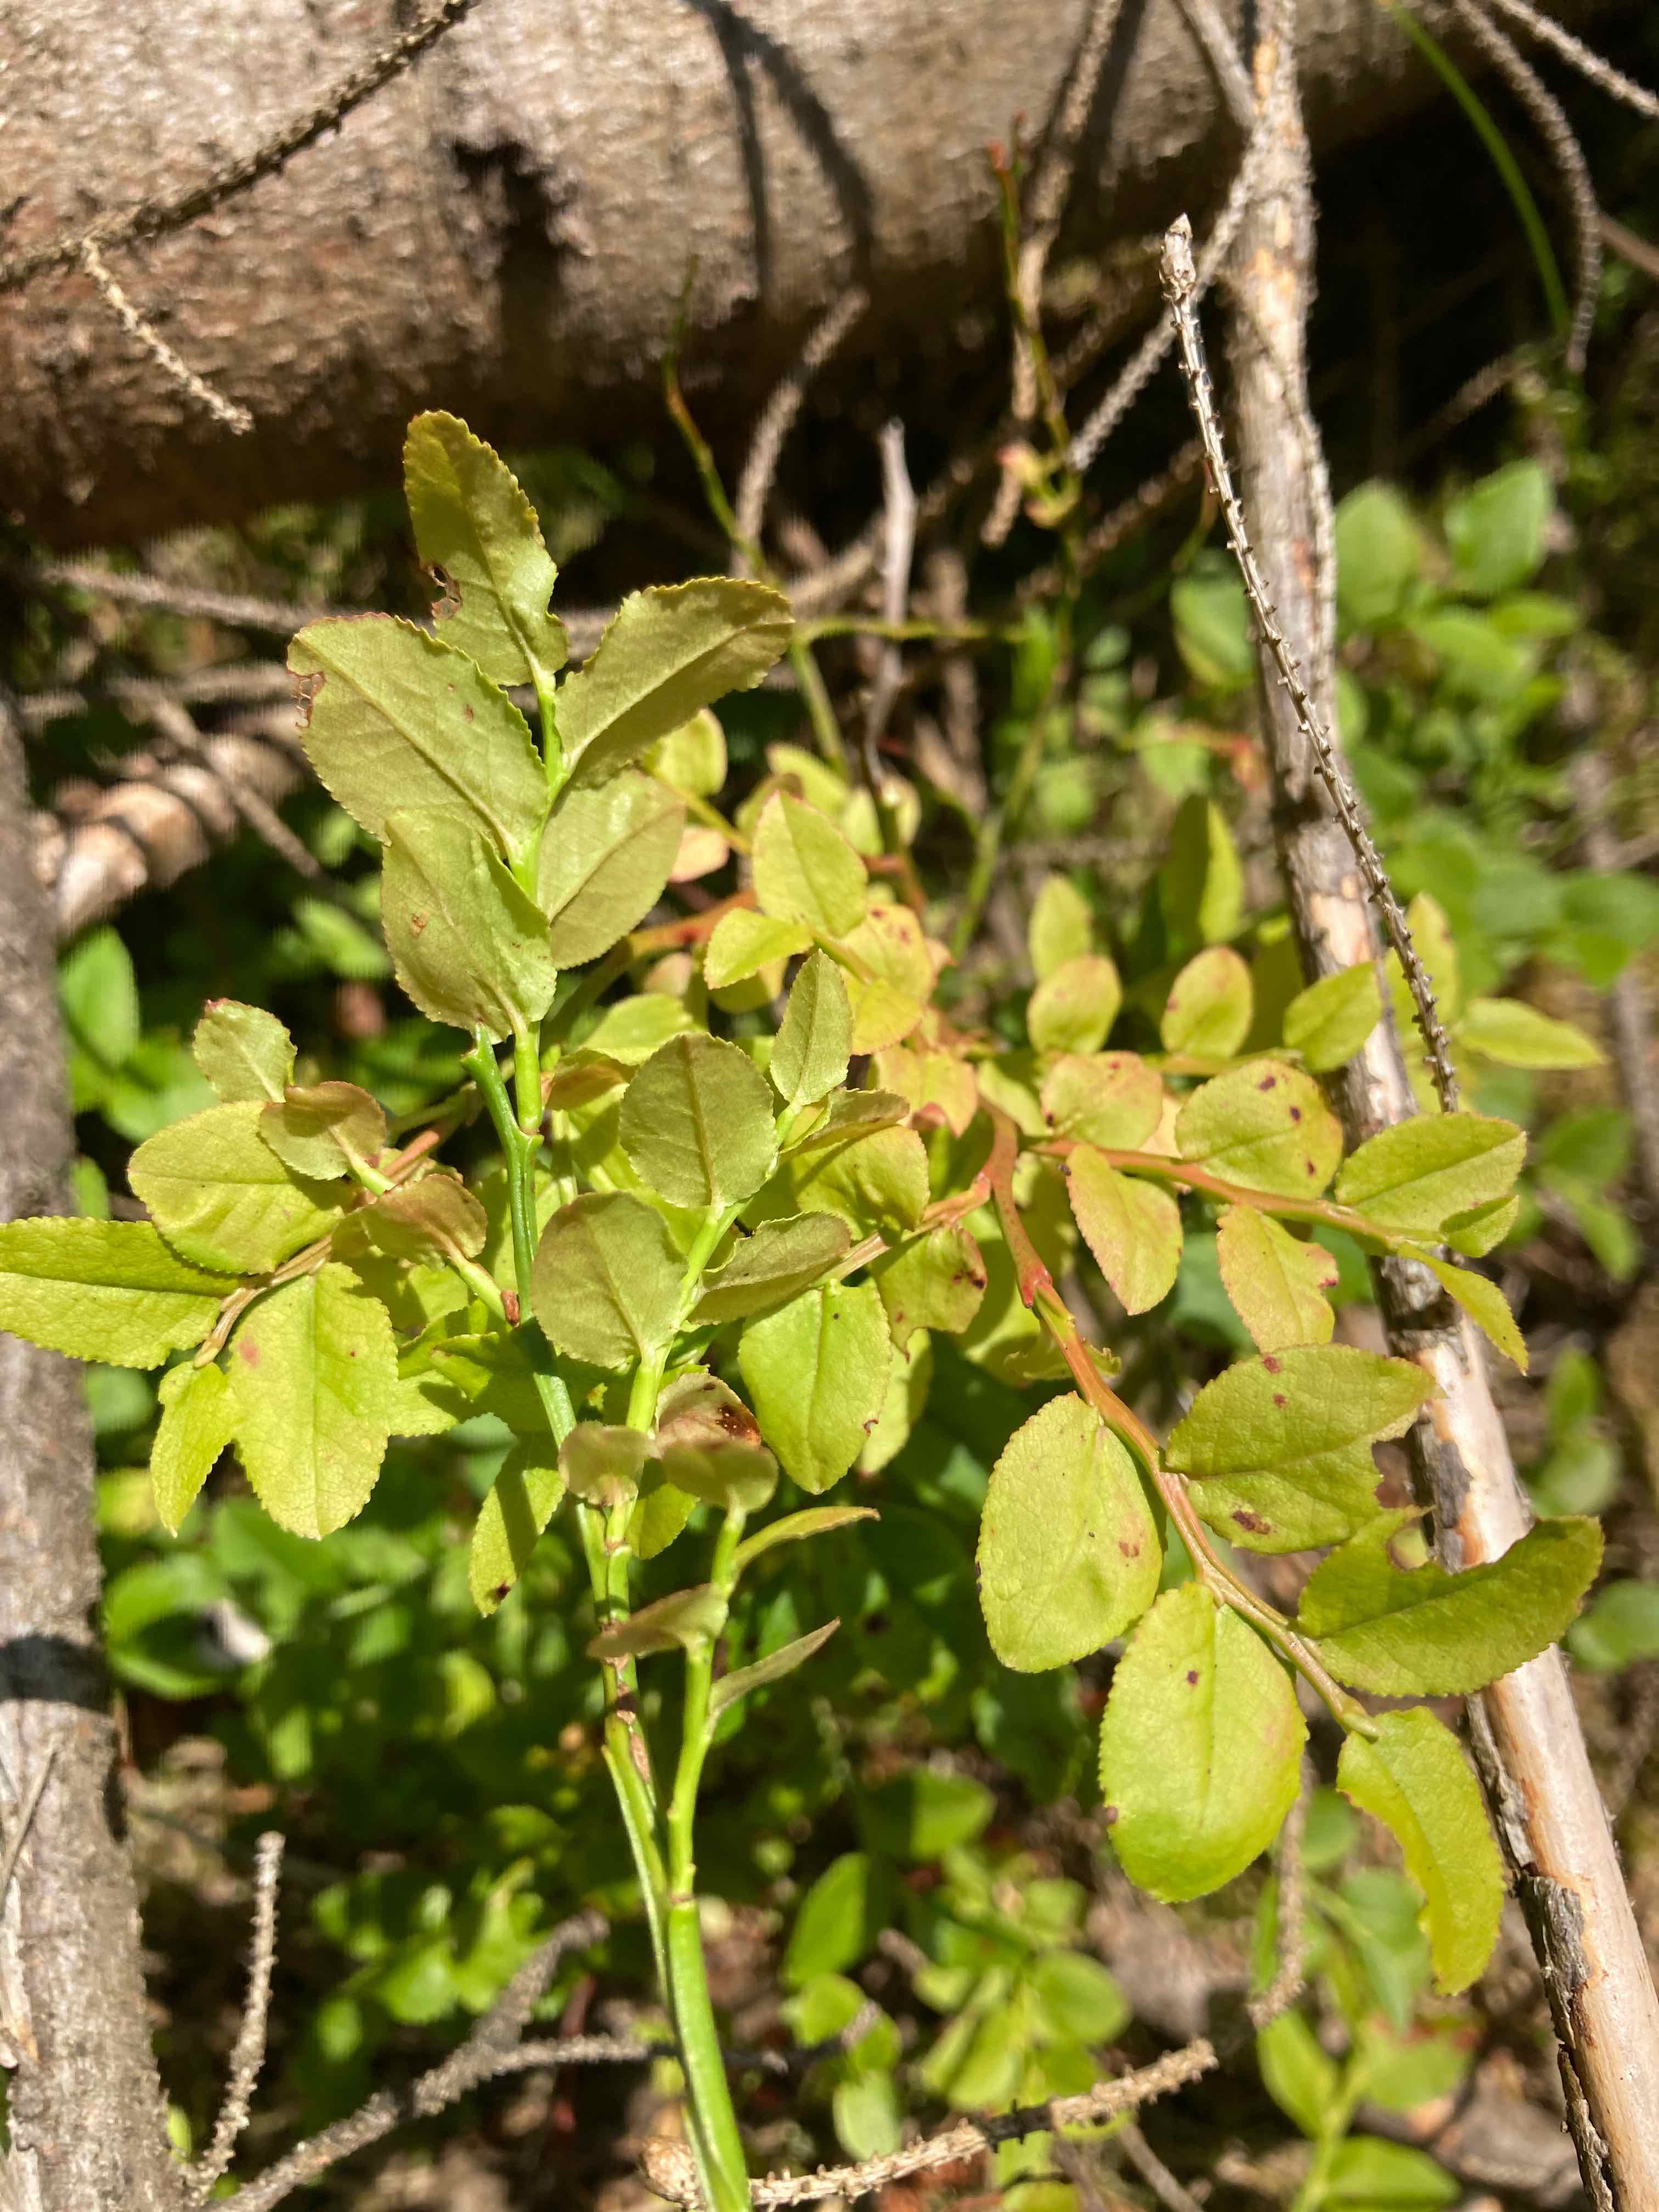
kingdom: Fungi
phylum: Basidiomycota
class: Pucciniomycetes
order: Pucciniales
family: Pucciniastraceae
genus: Naohidemyces
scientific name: Naohidemyces vaccinii
